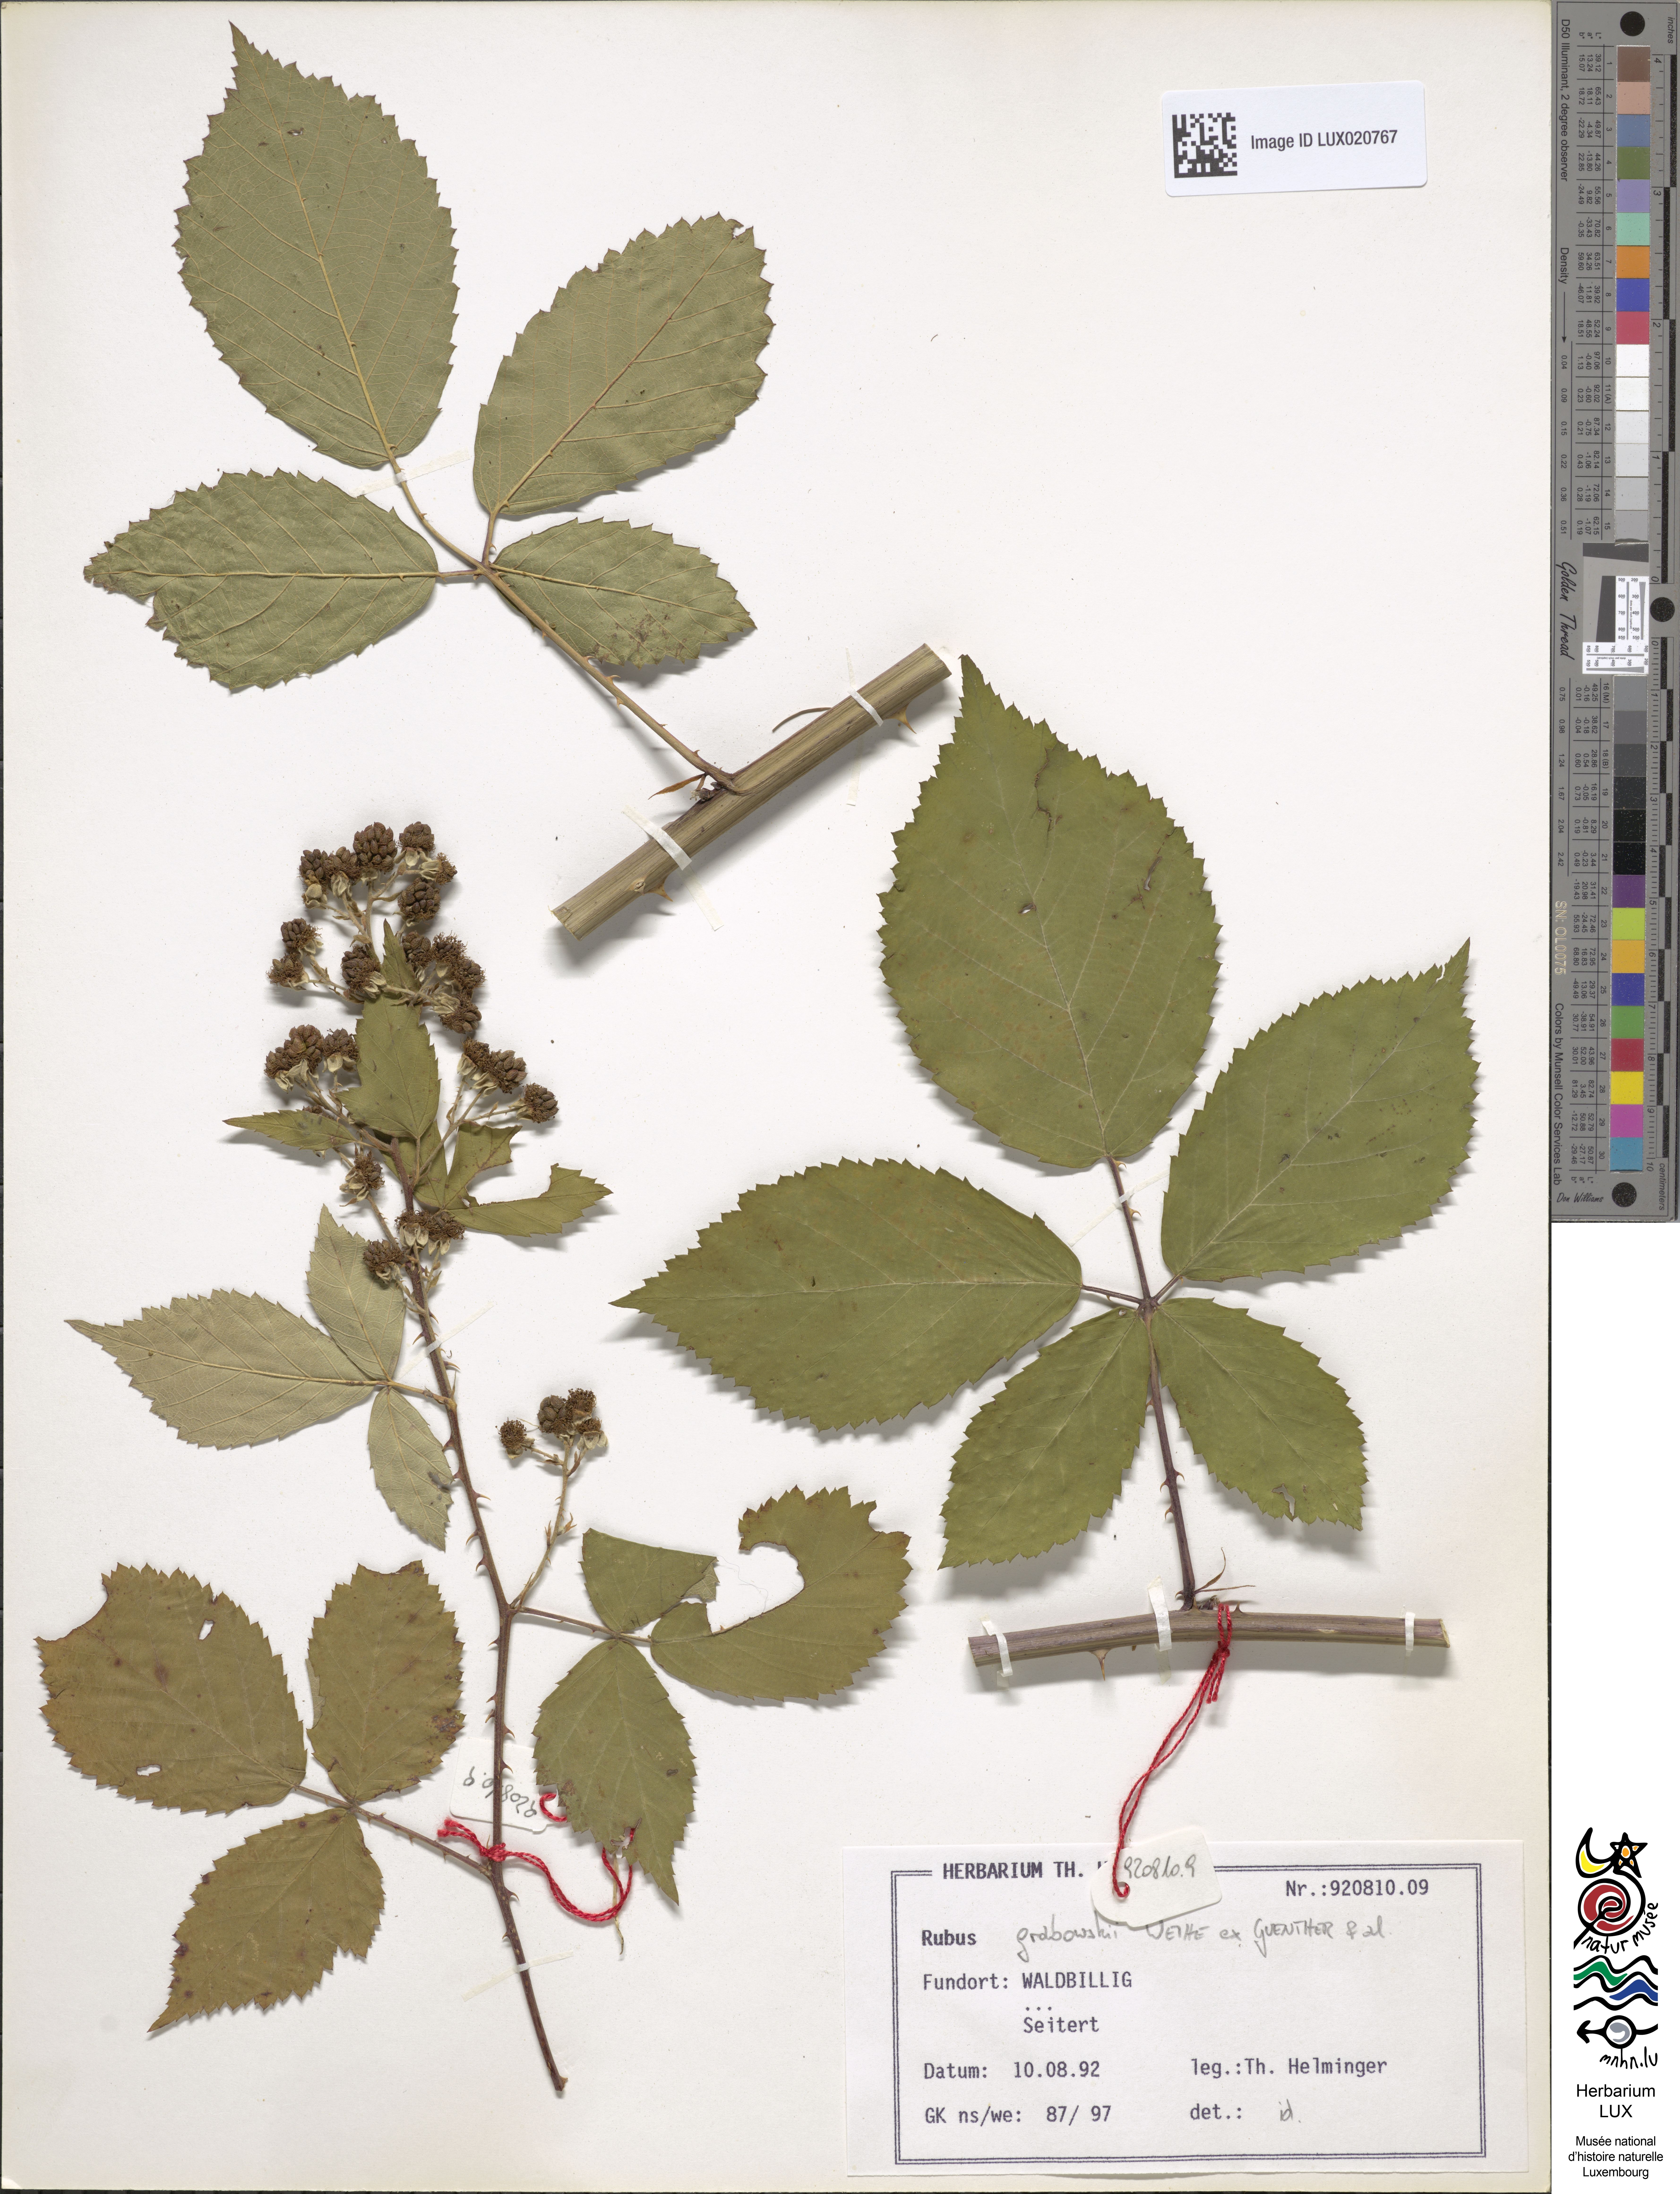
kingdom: Plantae
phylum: Tracheophyta
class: Magnoliopsida
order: Rosales
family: Rosaceae
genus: Rubus
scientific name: Rubus grabowskii
